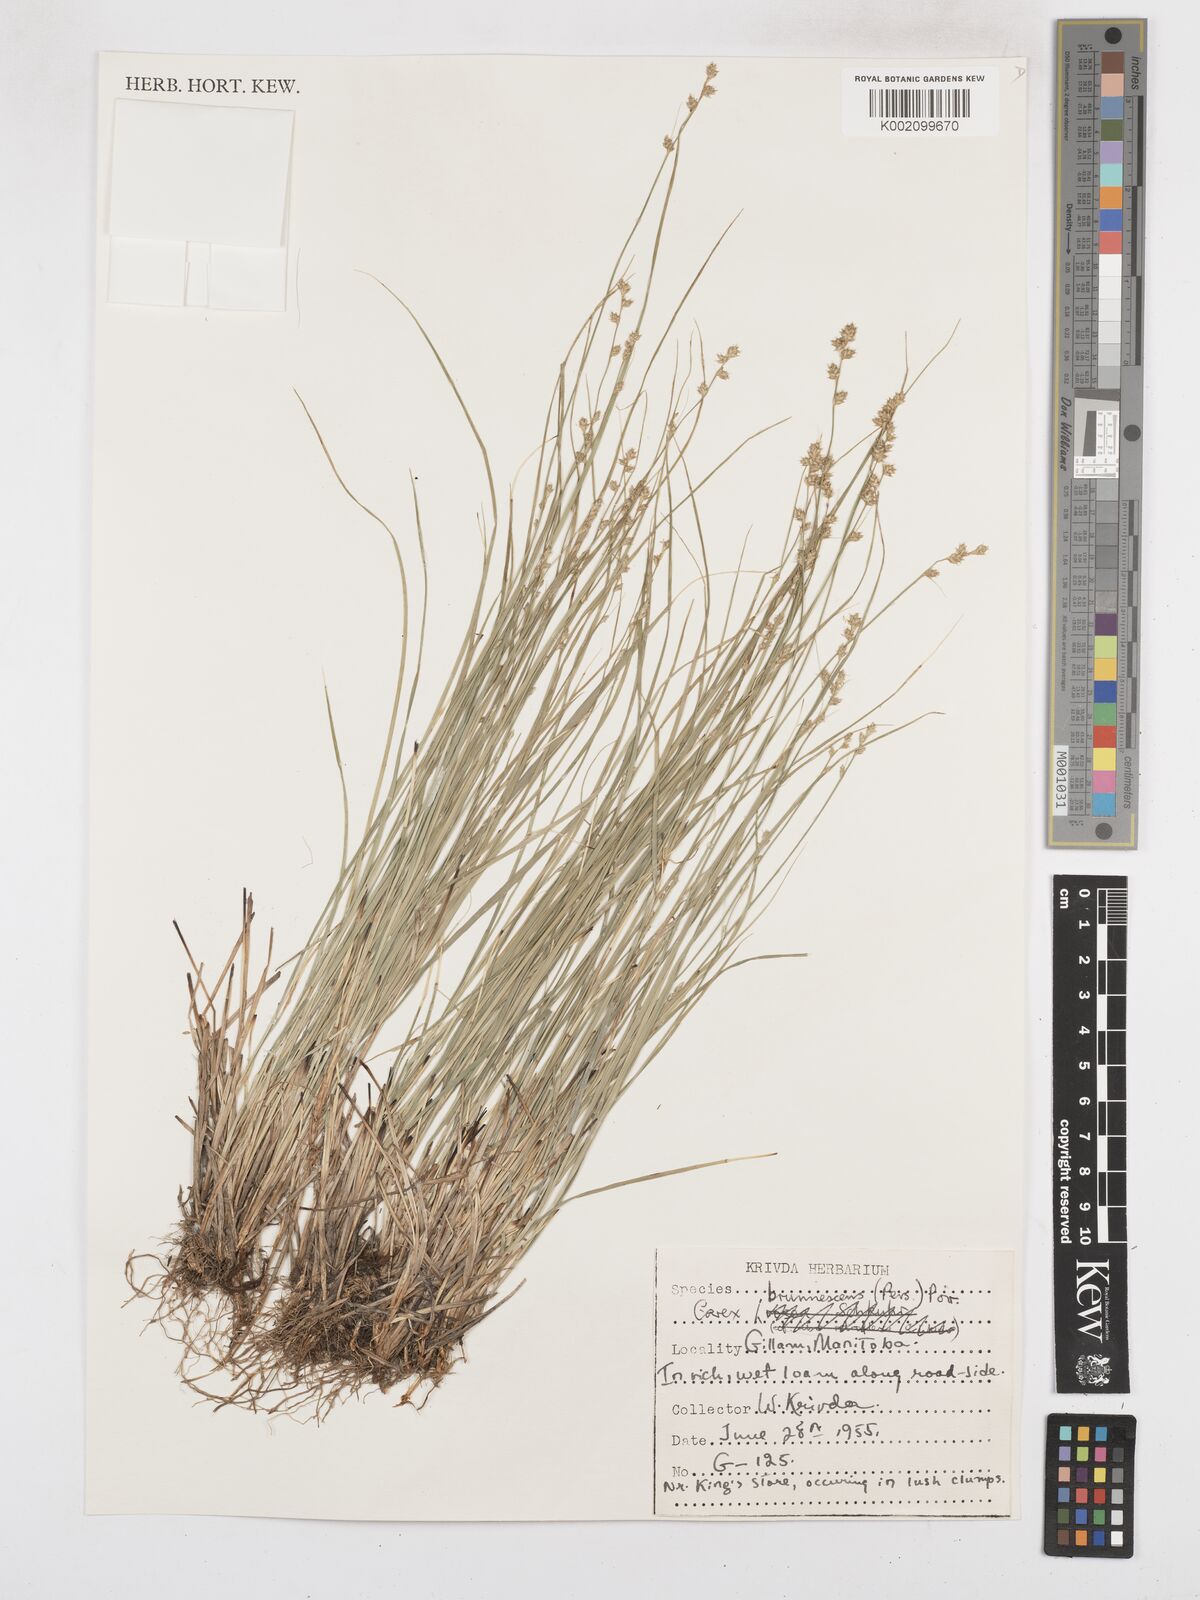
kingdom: Plantae
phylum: Tracheophyta
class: Liliopsida
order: Poales
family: Cyperaceae
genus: Carex
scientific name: Carex brunnescens
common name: Brown sedge
